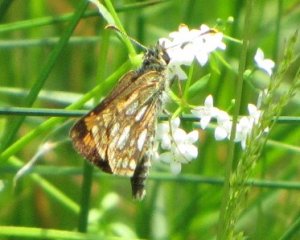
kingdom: Animalia
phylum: Arthropoda
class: Insecta
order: Lepidoptera
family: Hesperiidae
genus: Carterocephalus
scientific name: Carterocephalus palaemon
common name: Chequered Skipper
